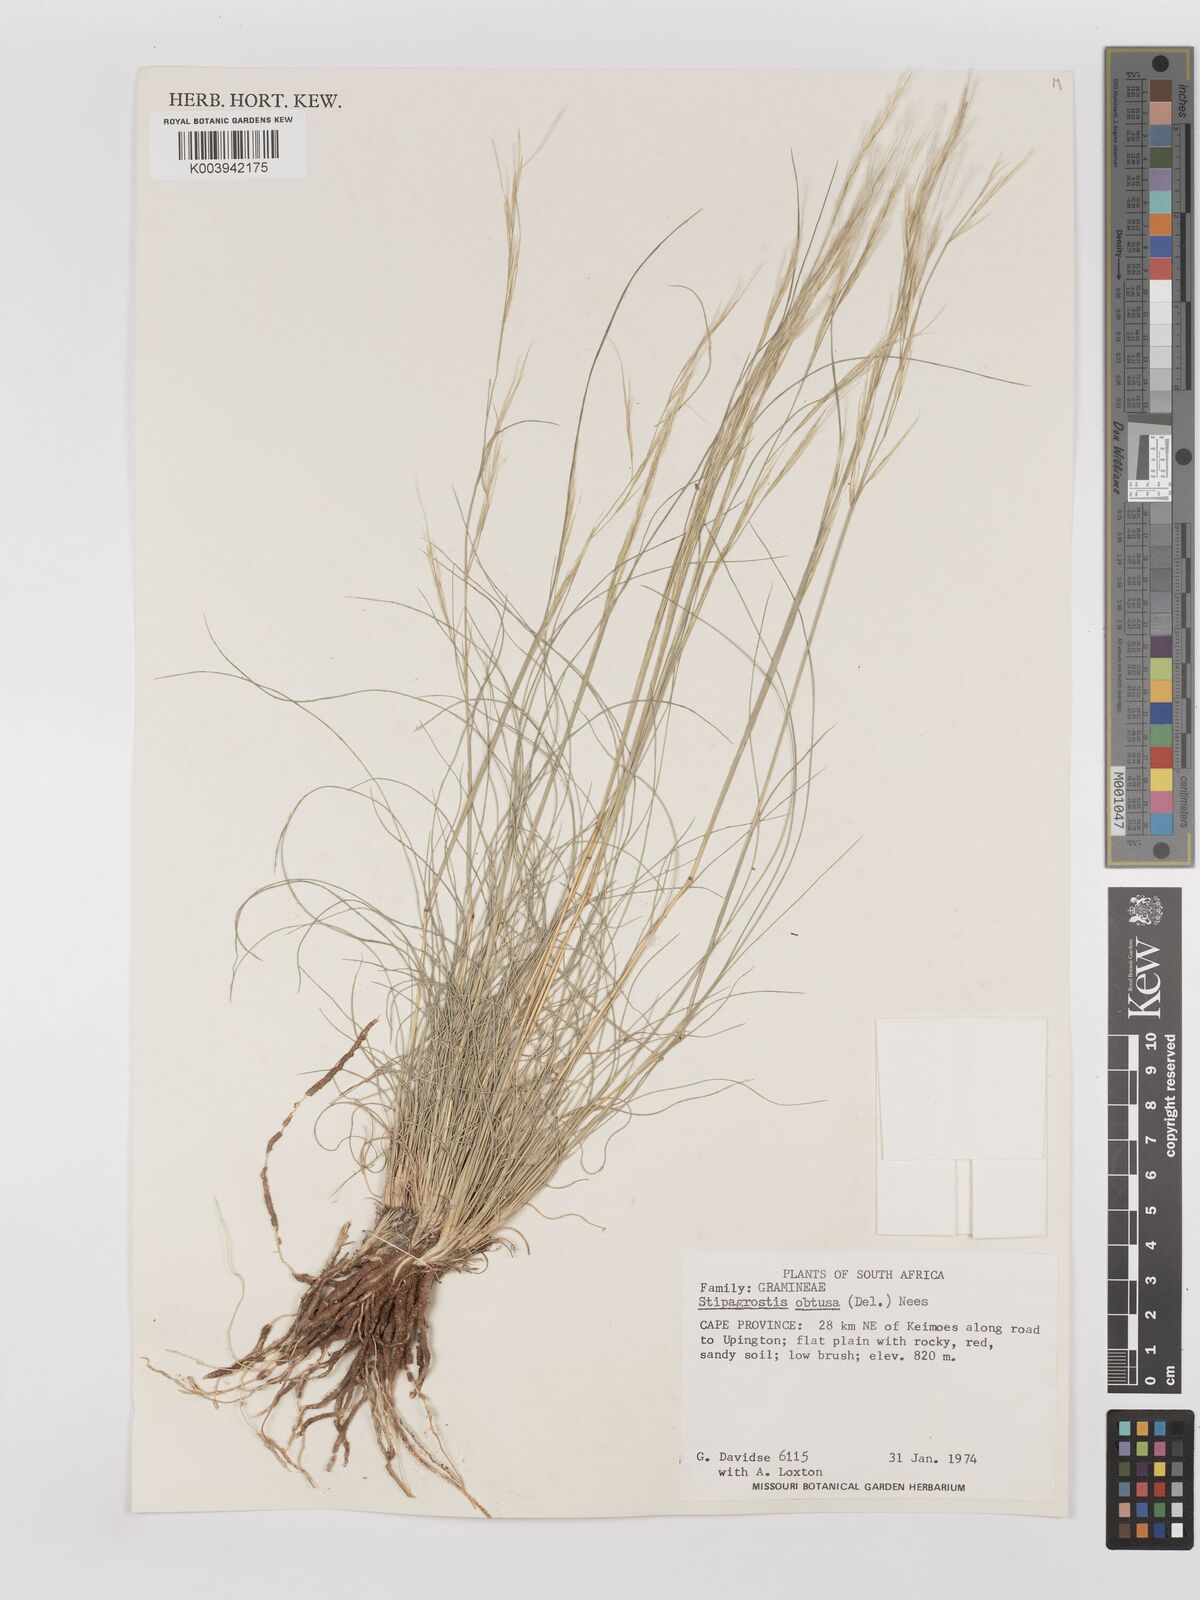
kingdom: Plantae
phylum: Tracheophyta
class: Liliopsida
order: Poales
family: Poaceae
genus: Stipagrostis
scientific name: Stipagrostis obtusa
